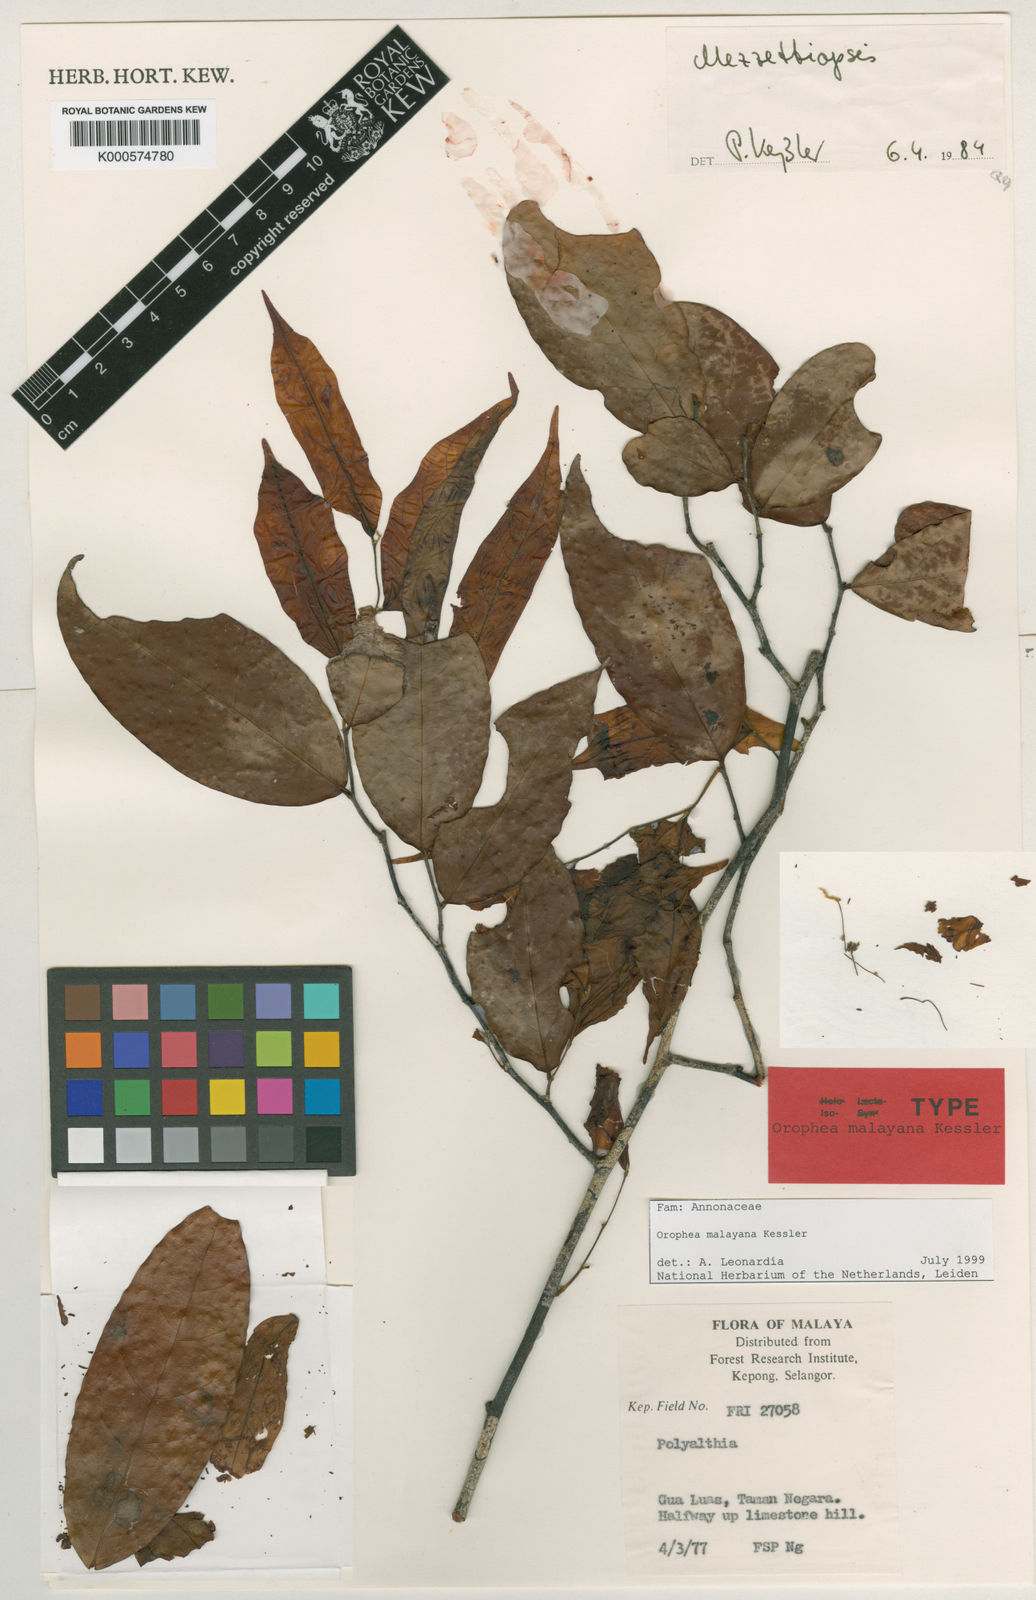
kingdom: Plantae
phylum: Tracheophyta
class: Magnoliopsida
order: Magnoliales
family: Annonaceae
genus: Orophea
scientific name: Orophea malayana
